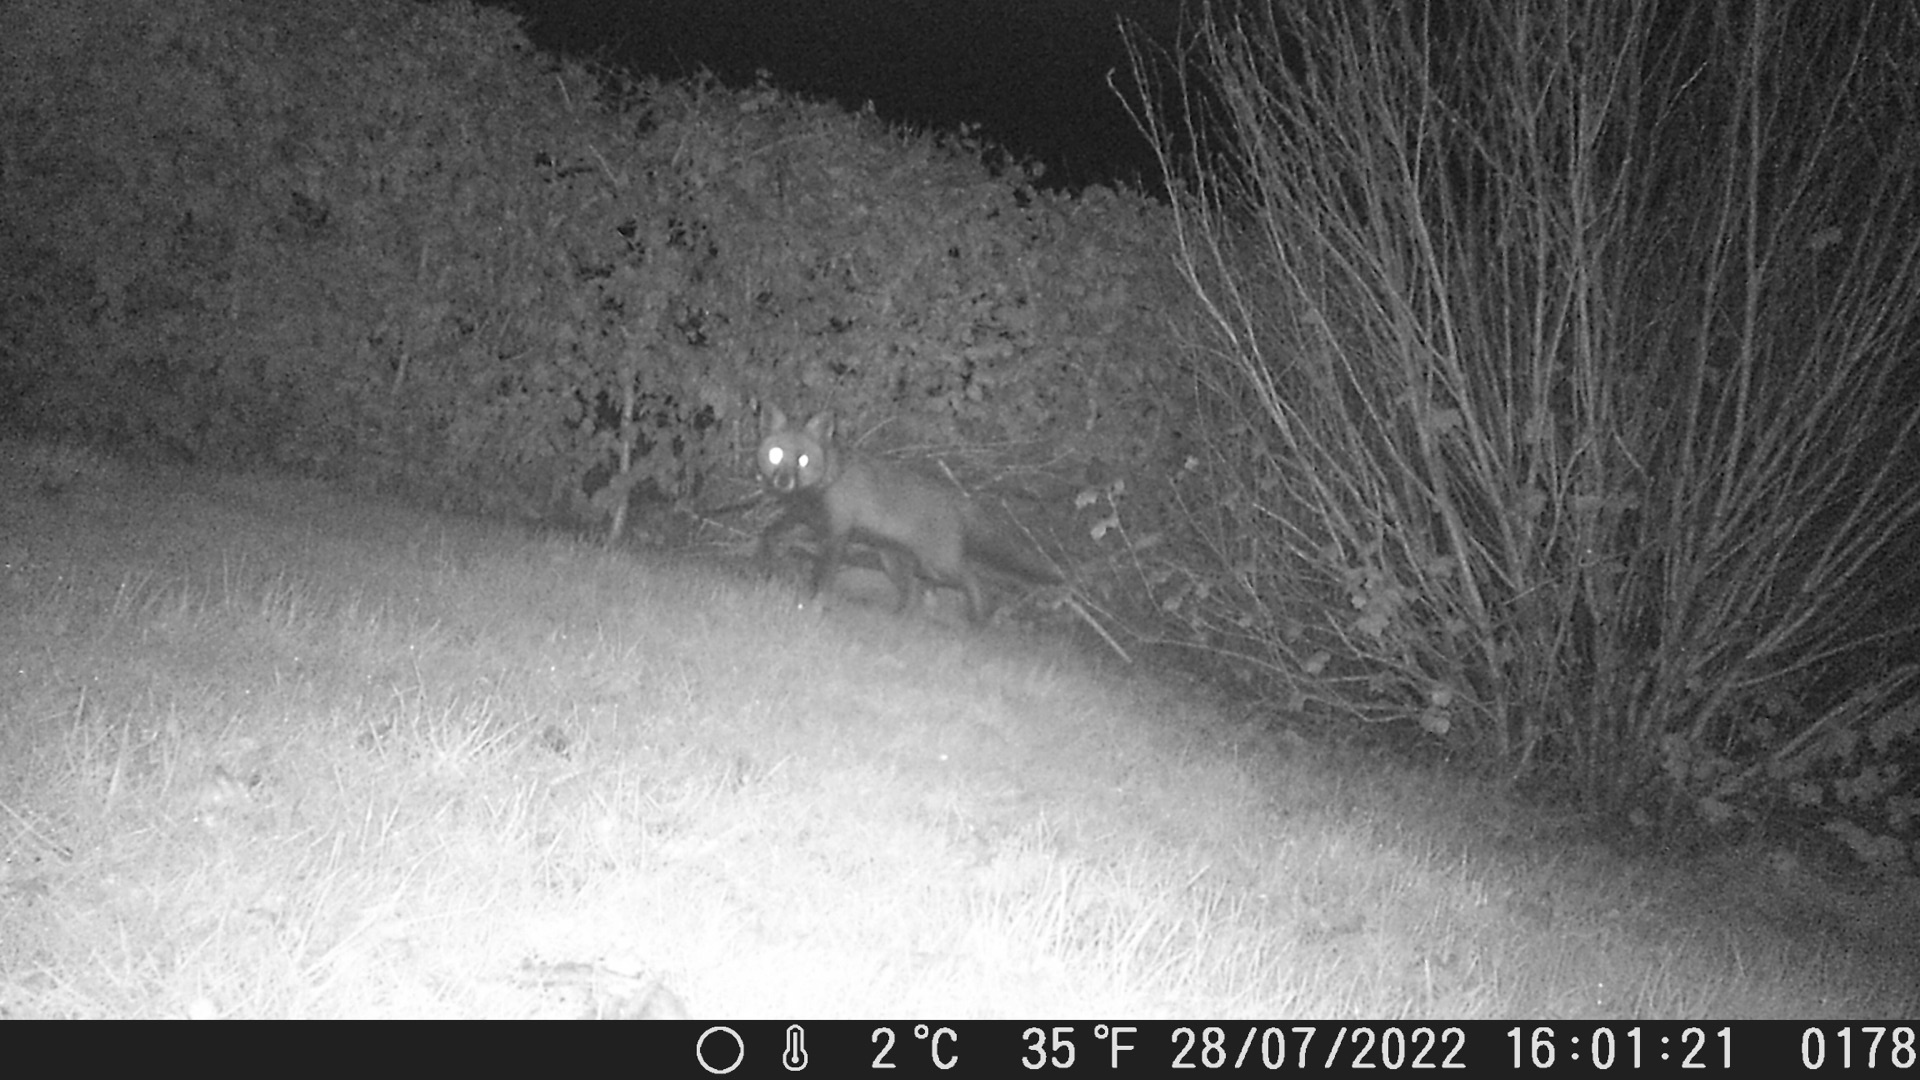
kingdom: Animalia
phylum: Chordata
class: Mammalia
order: Carnivora
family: Canidae
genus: Vulpes
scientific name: Vulpes vulpes
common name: Ræv
